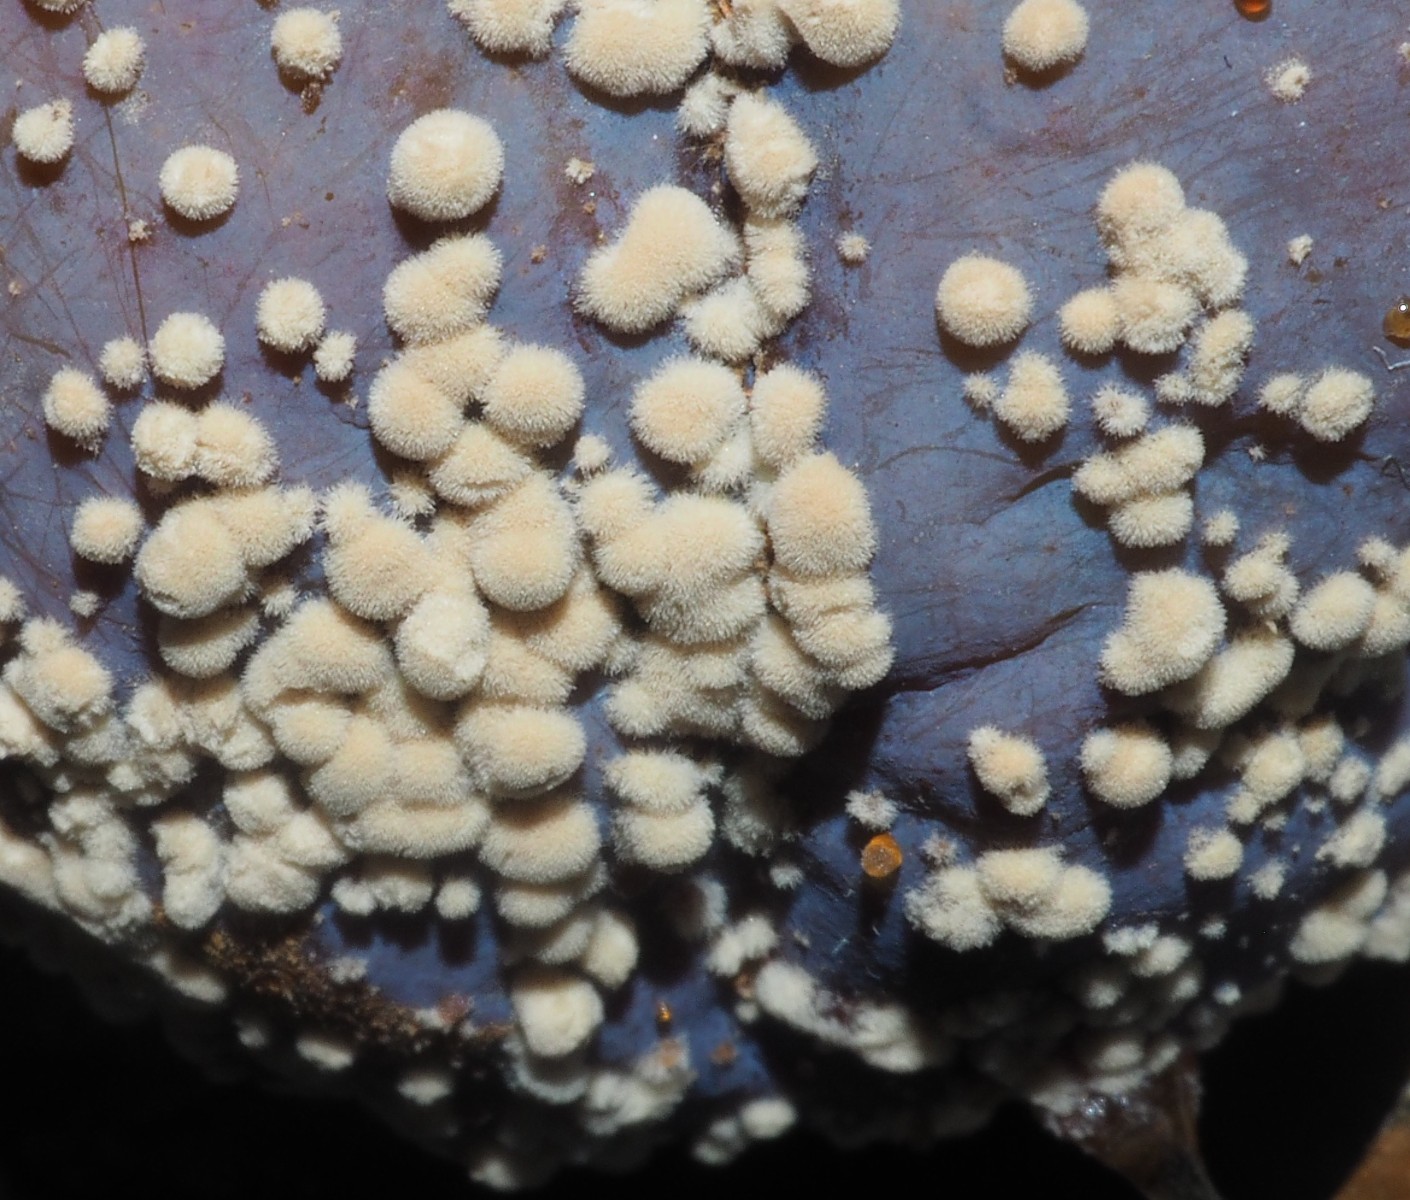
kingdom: Fungi
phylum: Ascomycota
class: Leotiomycetes
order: Helotiales
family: Sclerotiniaceae
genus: Monilinia
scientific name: Monilinia laxa
